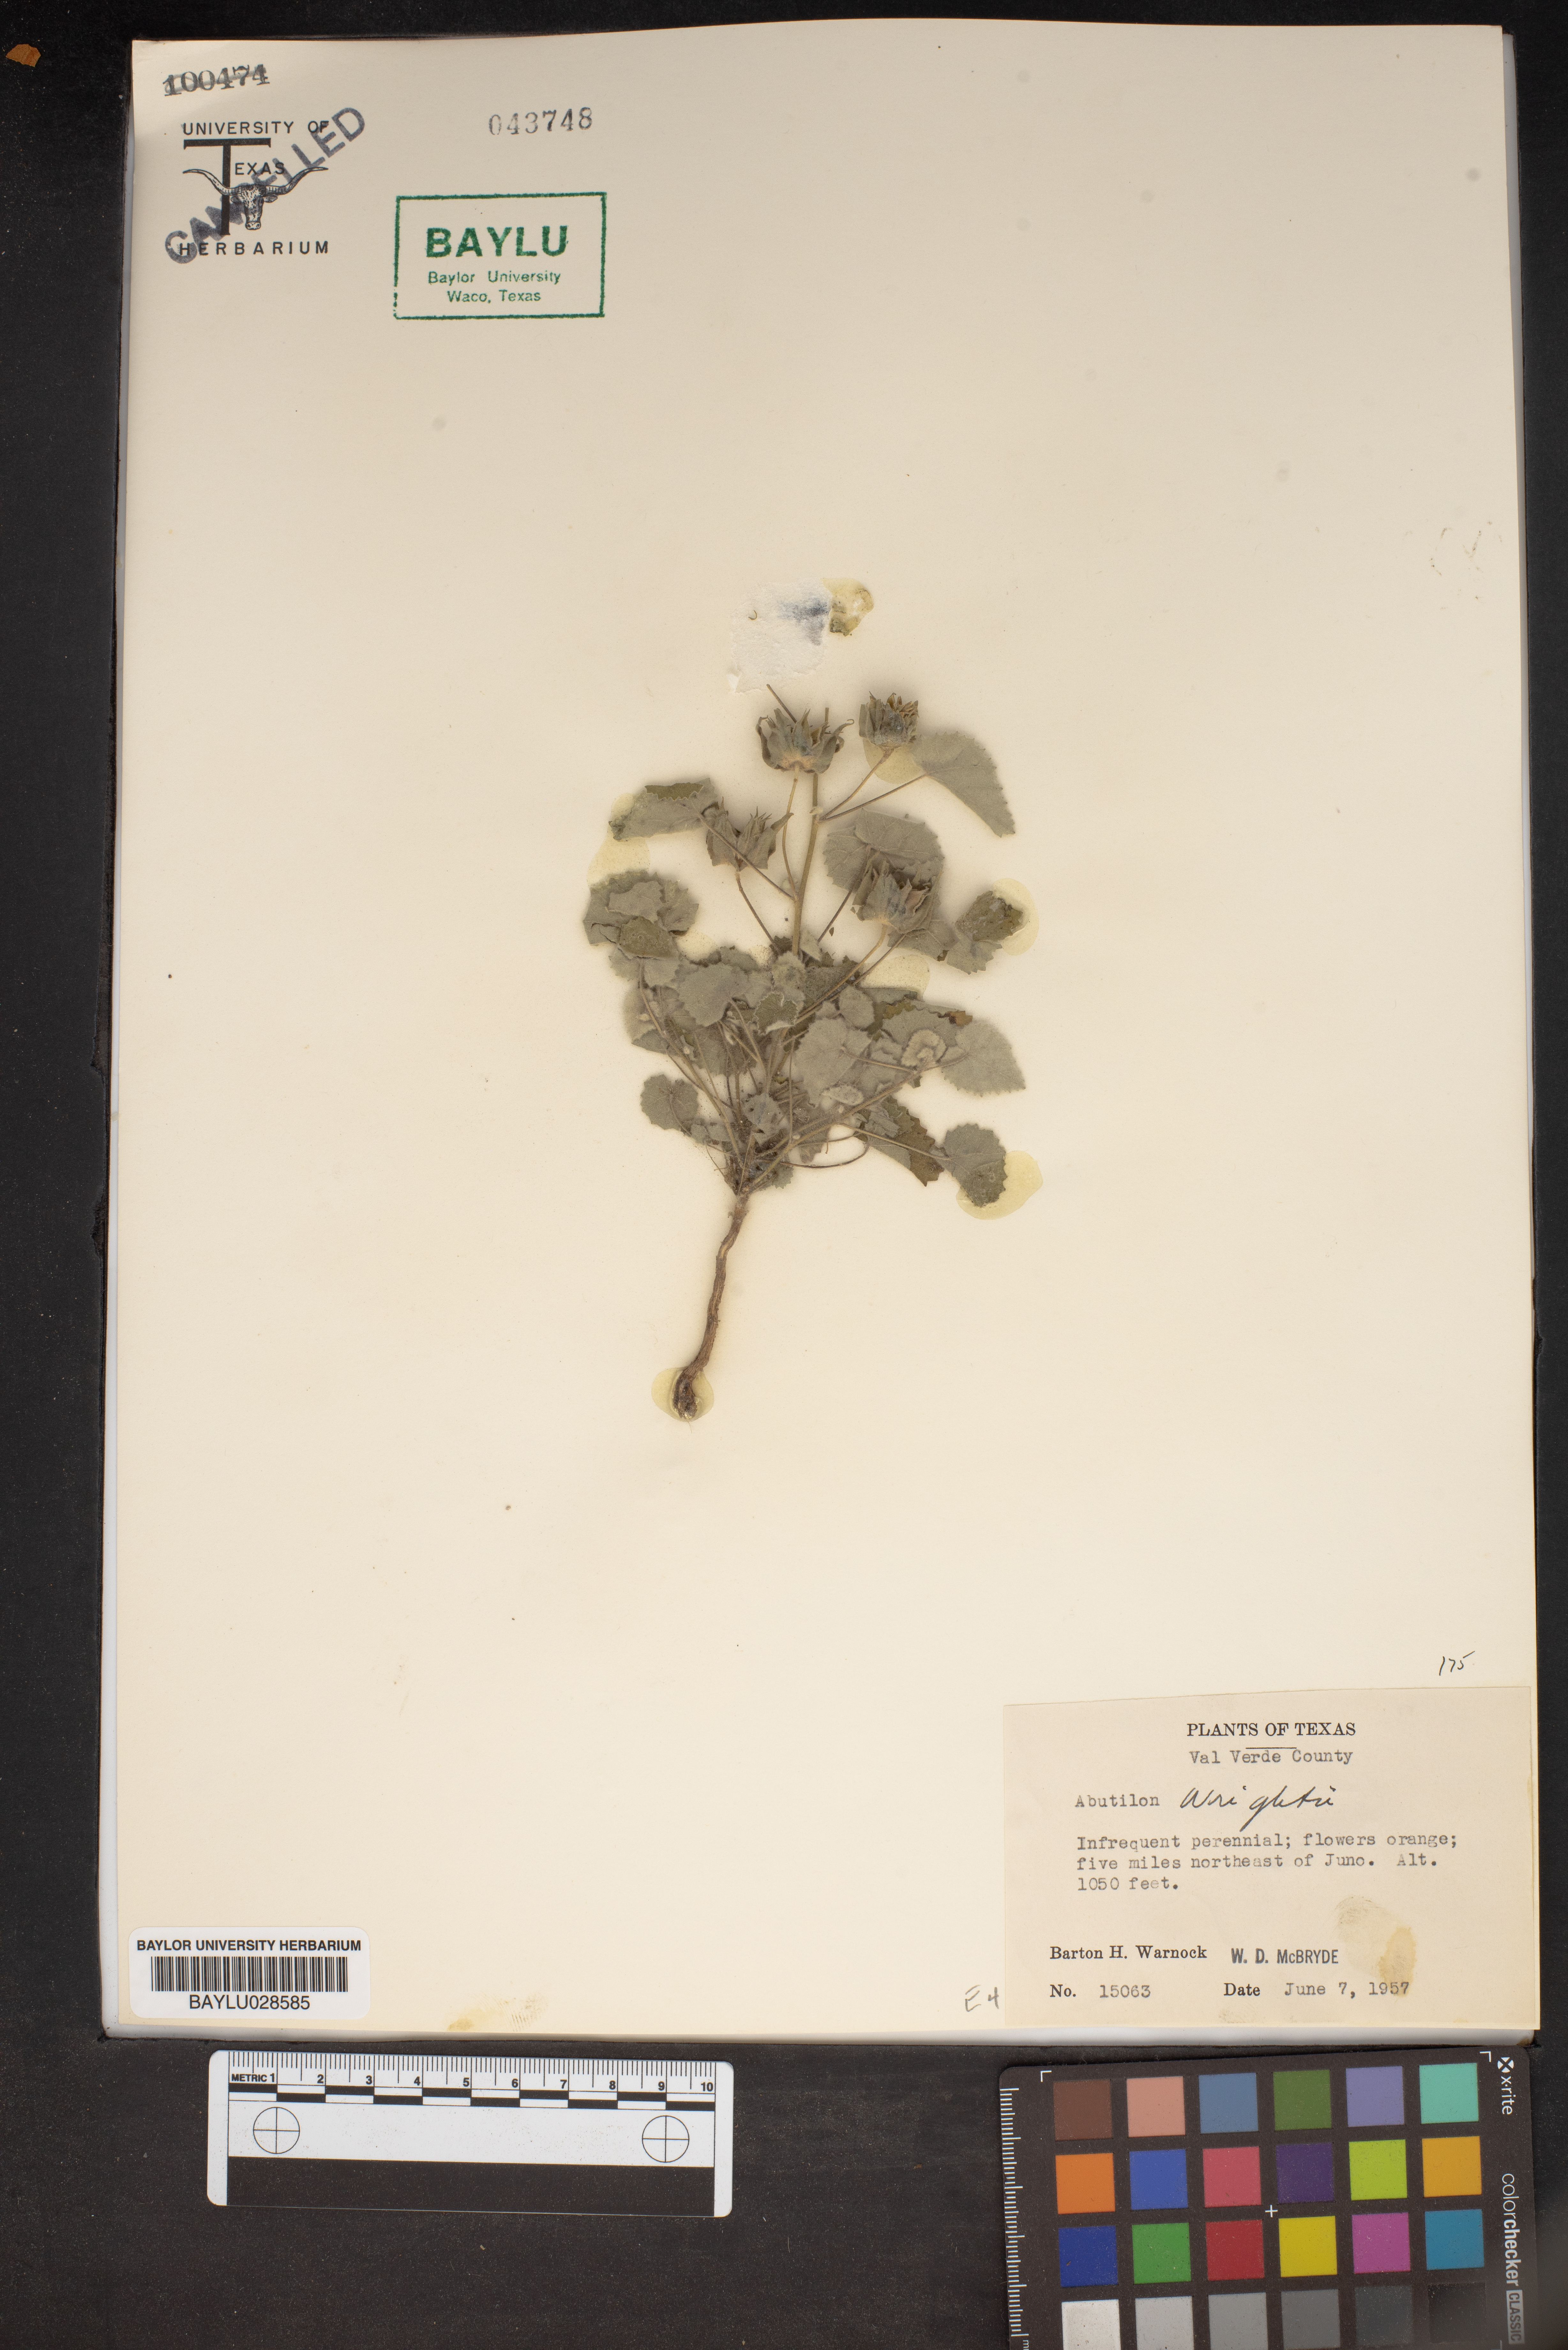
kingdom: Plantae
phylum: Tracheophyta
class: Magnoliopsida
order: Malvales
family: Malvaceae
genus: Abutilon
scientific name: Abutilon wrightii
